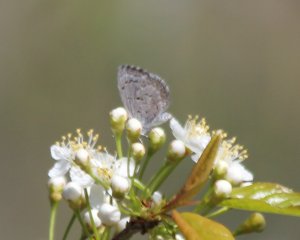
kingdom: Animalia
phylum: Arthropoda
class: Insecta
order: Lepidoptera
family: Lycaenidae
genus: Cyaniris
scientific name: Cyaniris neglecta
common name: Summer Azure
